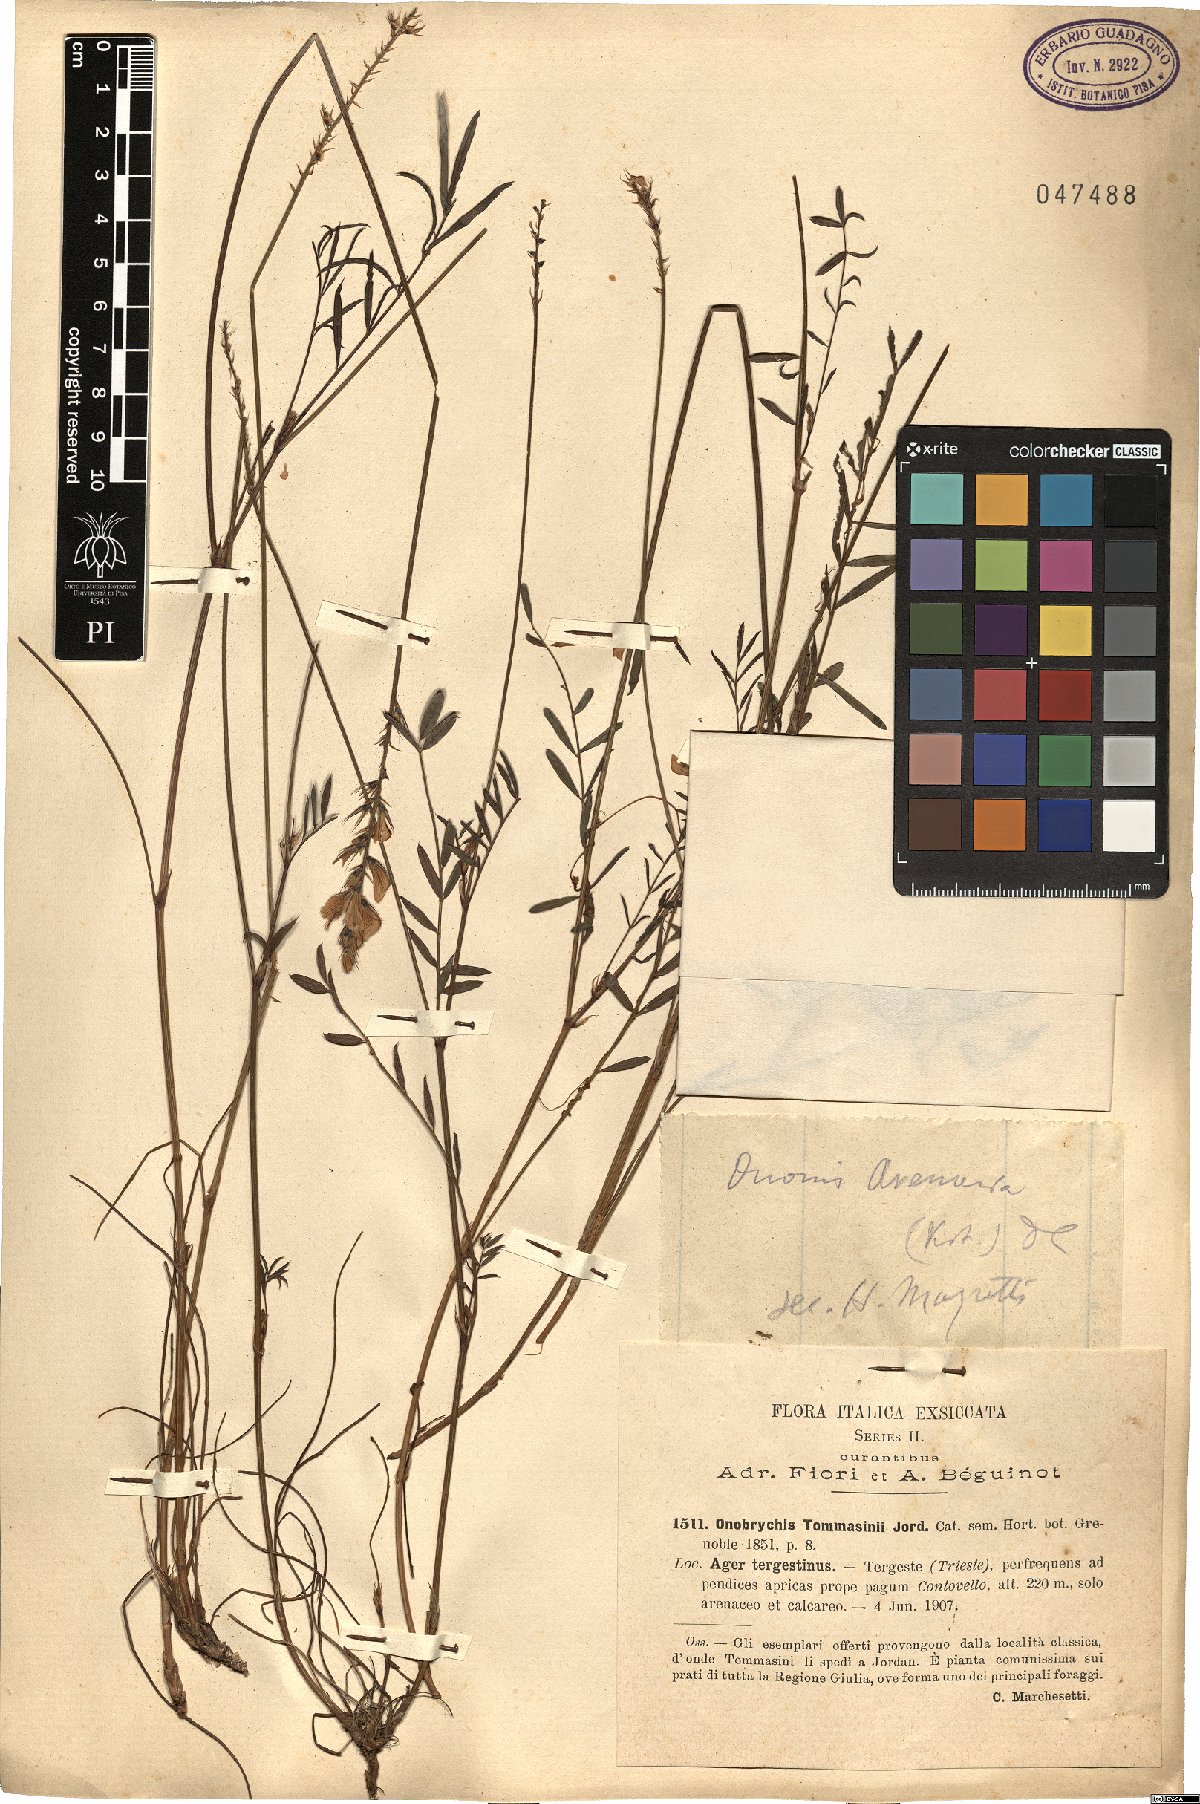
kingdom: Plantae
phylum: Tracheophyta
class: Magnoliopsida
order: Fabales
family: Fabaceae
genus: Onobrychis
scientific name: Onobrychis arenaria
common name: Sand esparcet
